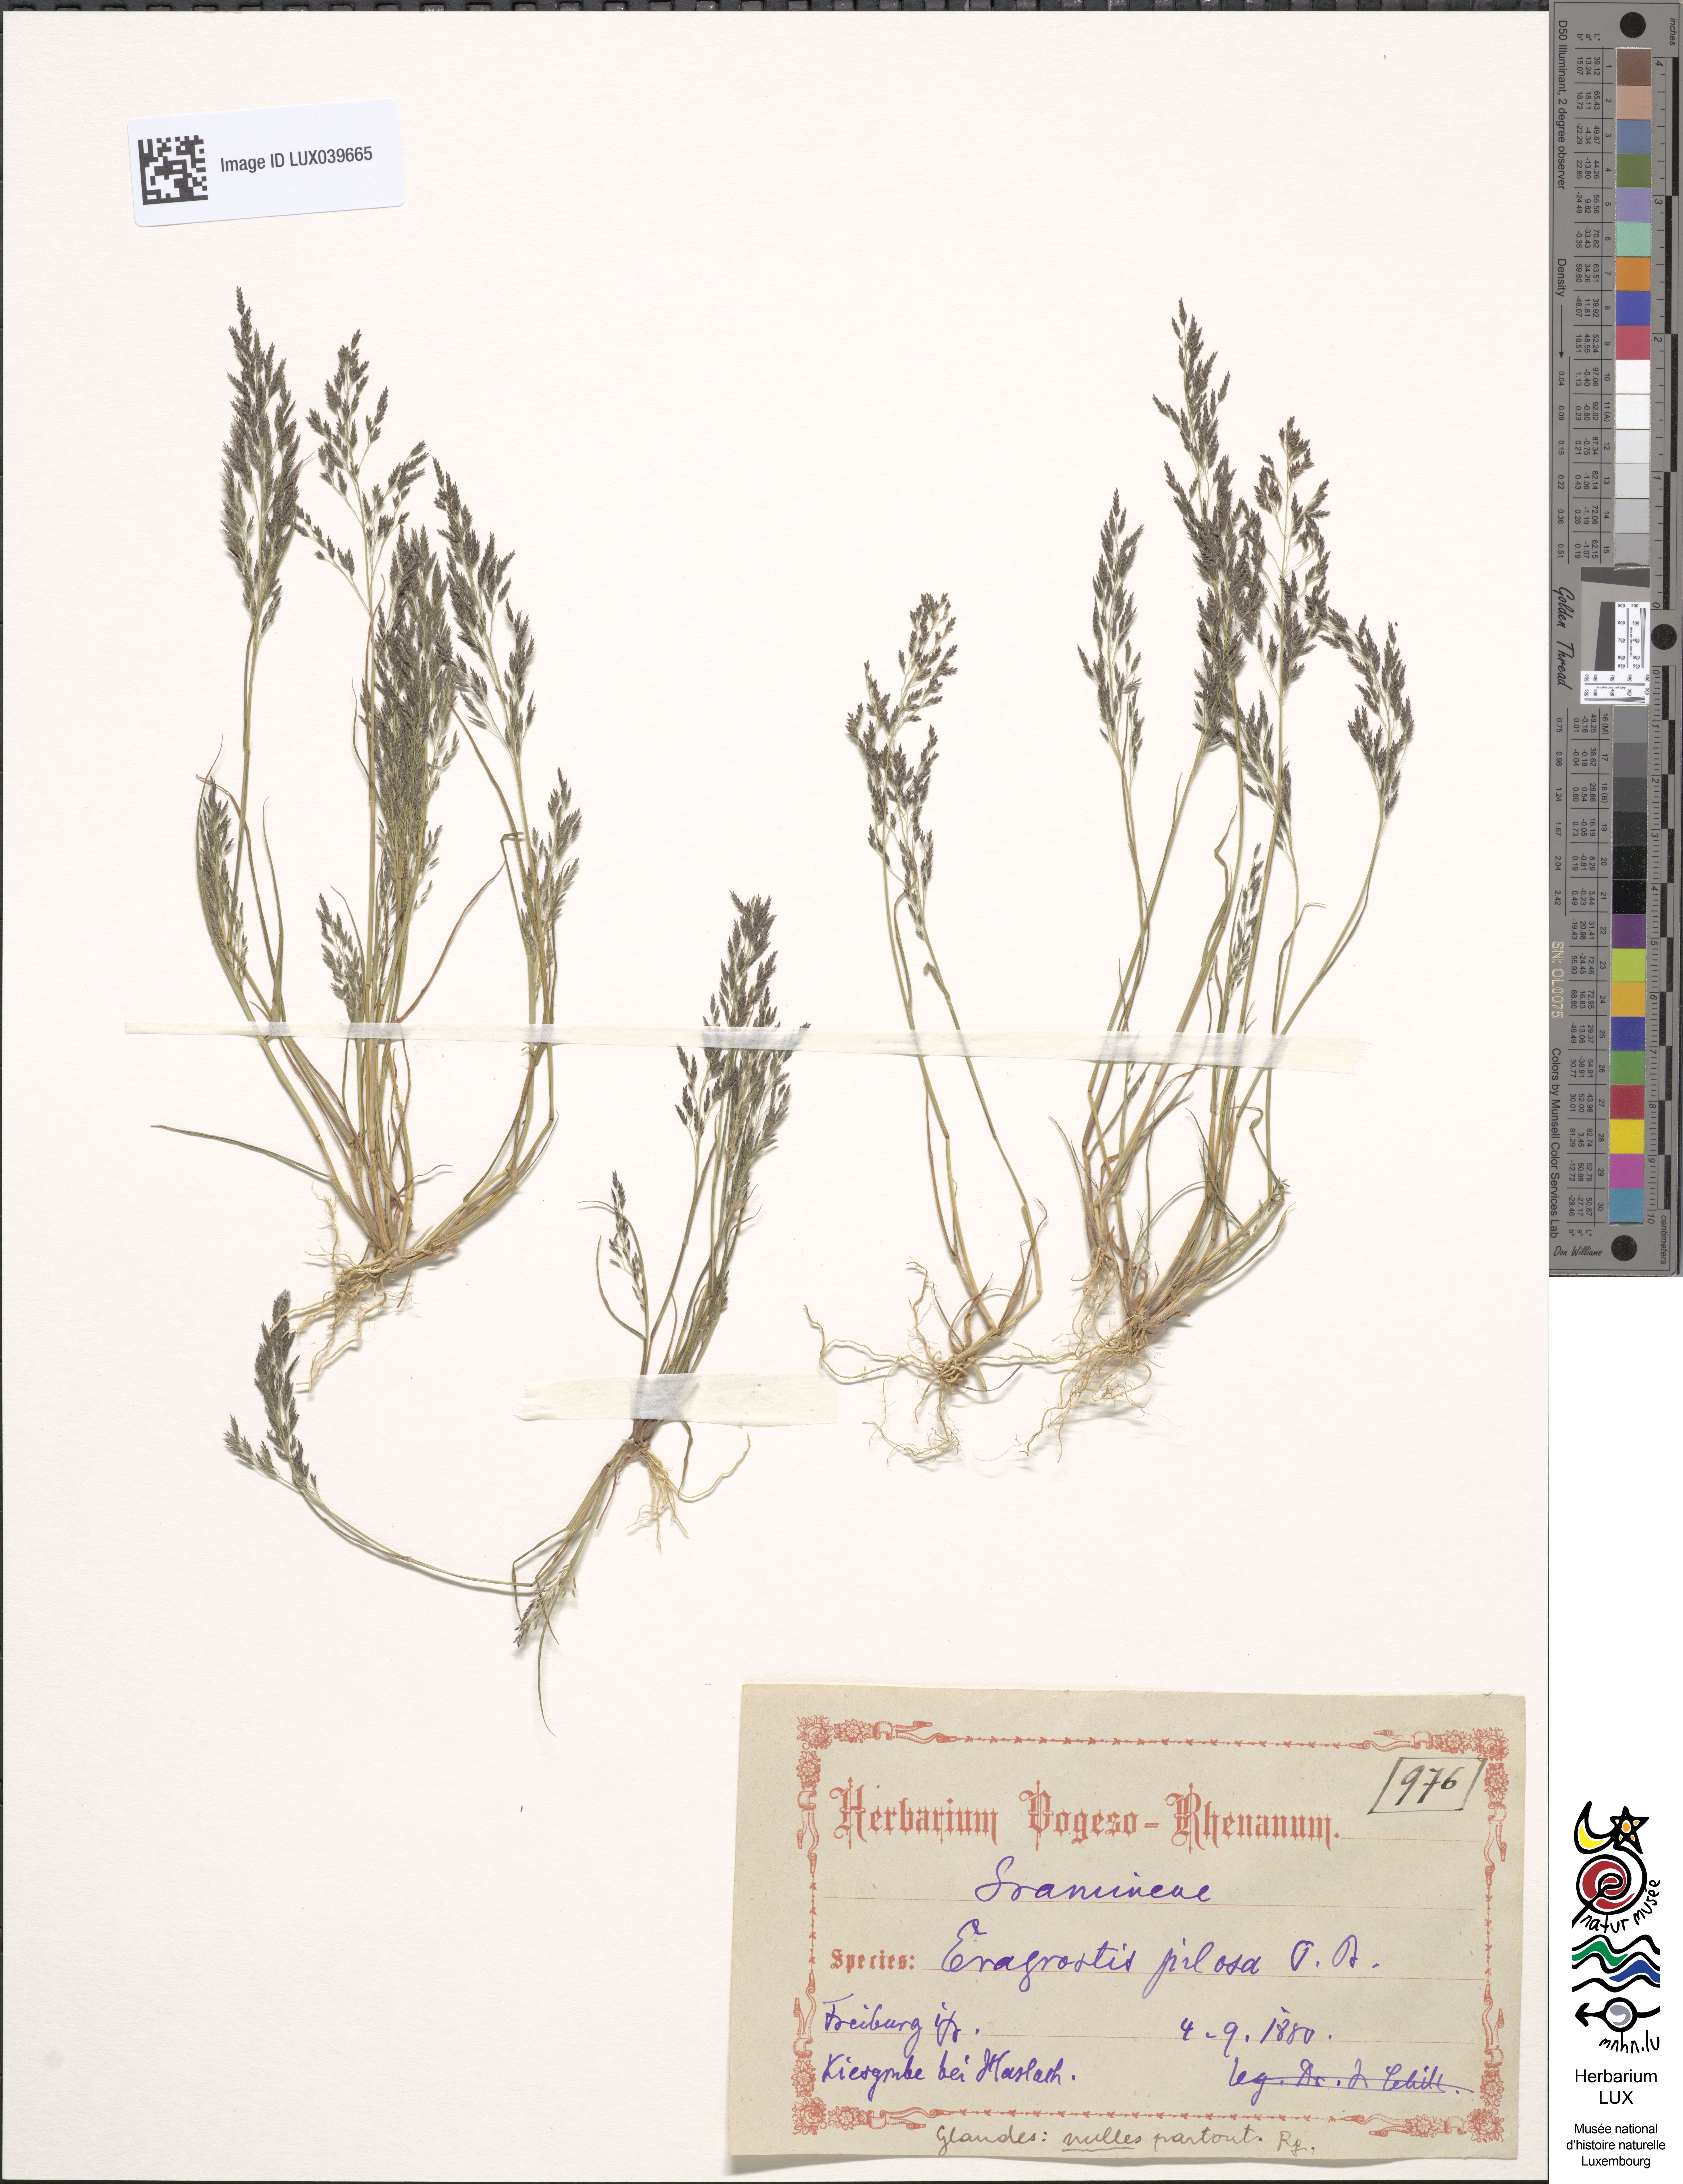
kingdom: Plantae
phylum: Tracheophyta
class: Liliopsida
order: Poales
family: Poaceae
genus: Eragrostis
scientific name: Eragrostis pilosa
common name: Indian lovegrass
